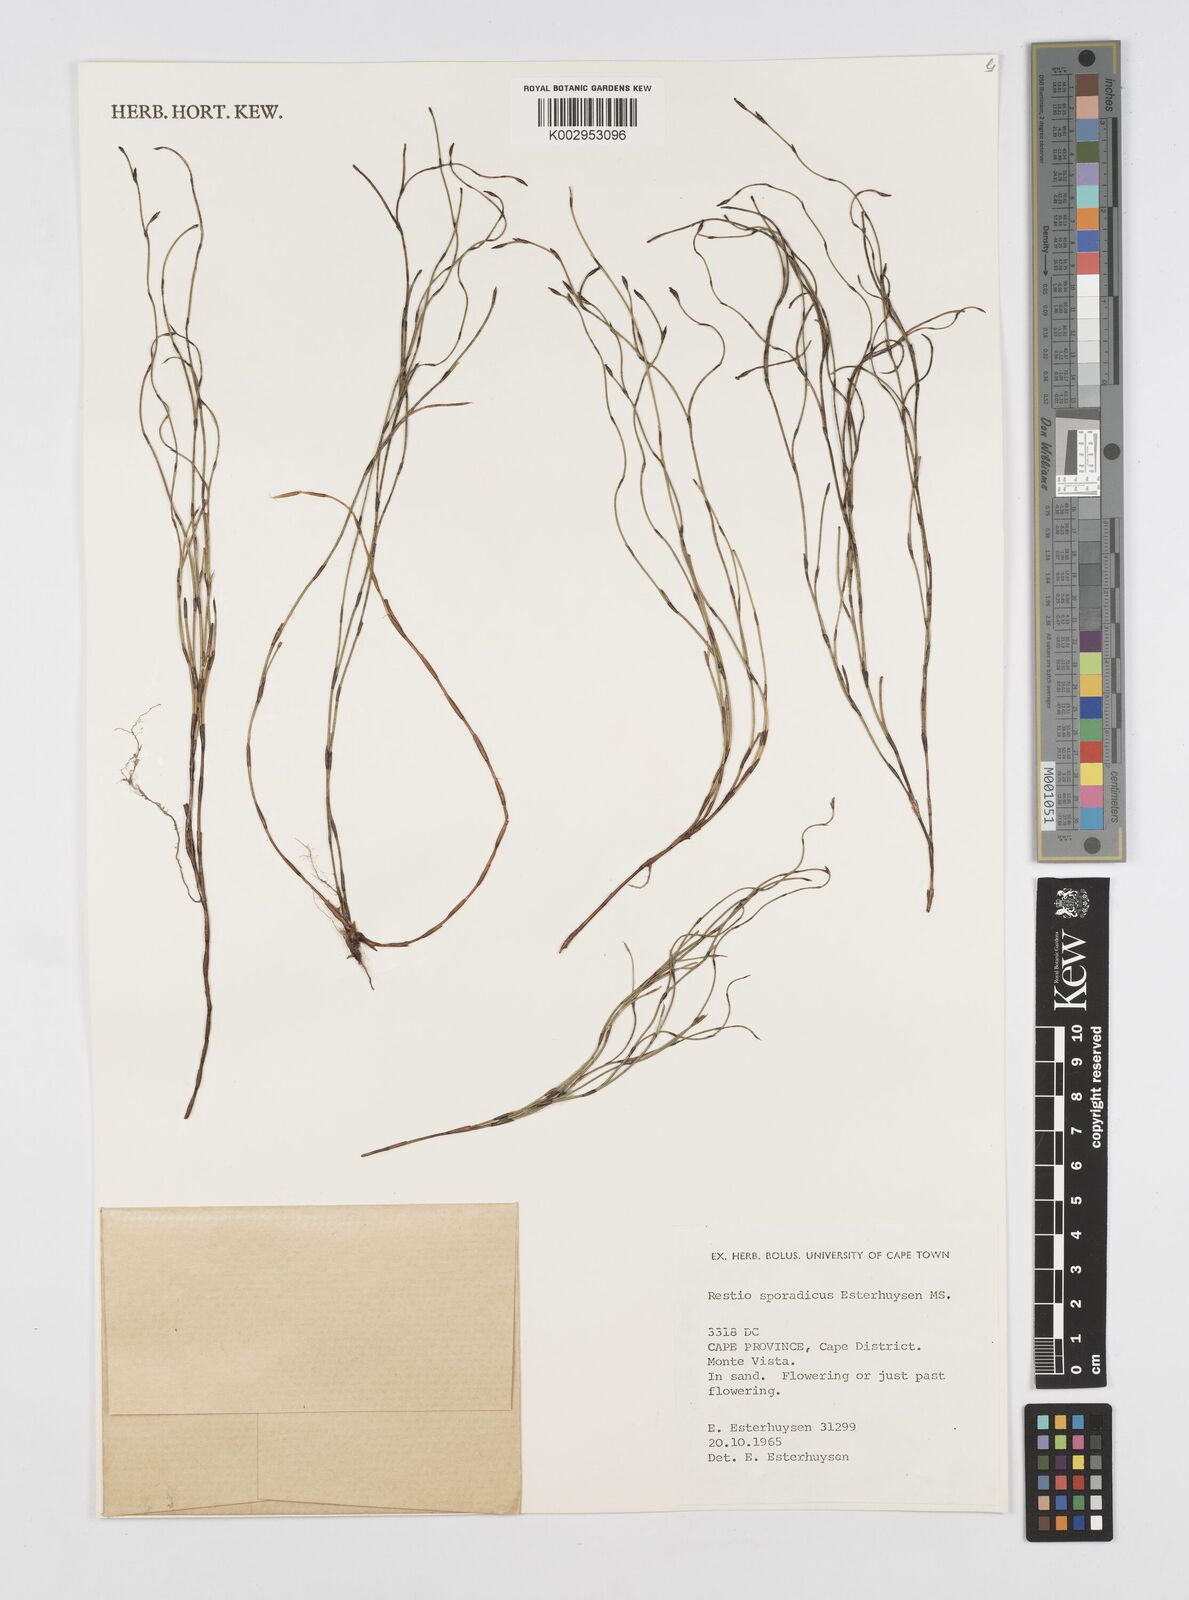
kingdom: Plantae
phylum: Tracheophyta
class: Liliopsida
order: Poales
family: Restionaceae
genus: Restio
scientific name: Restio sporadicus
